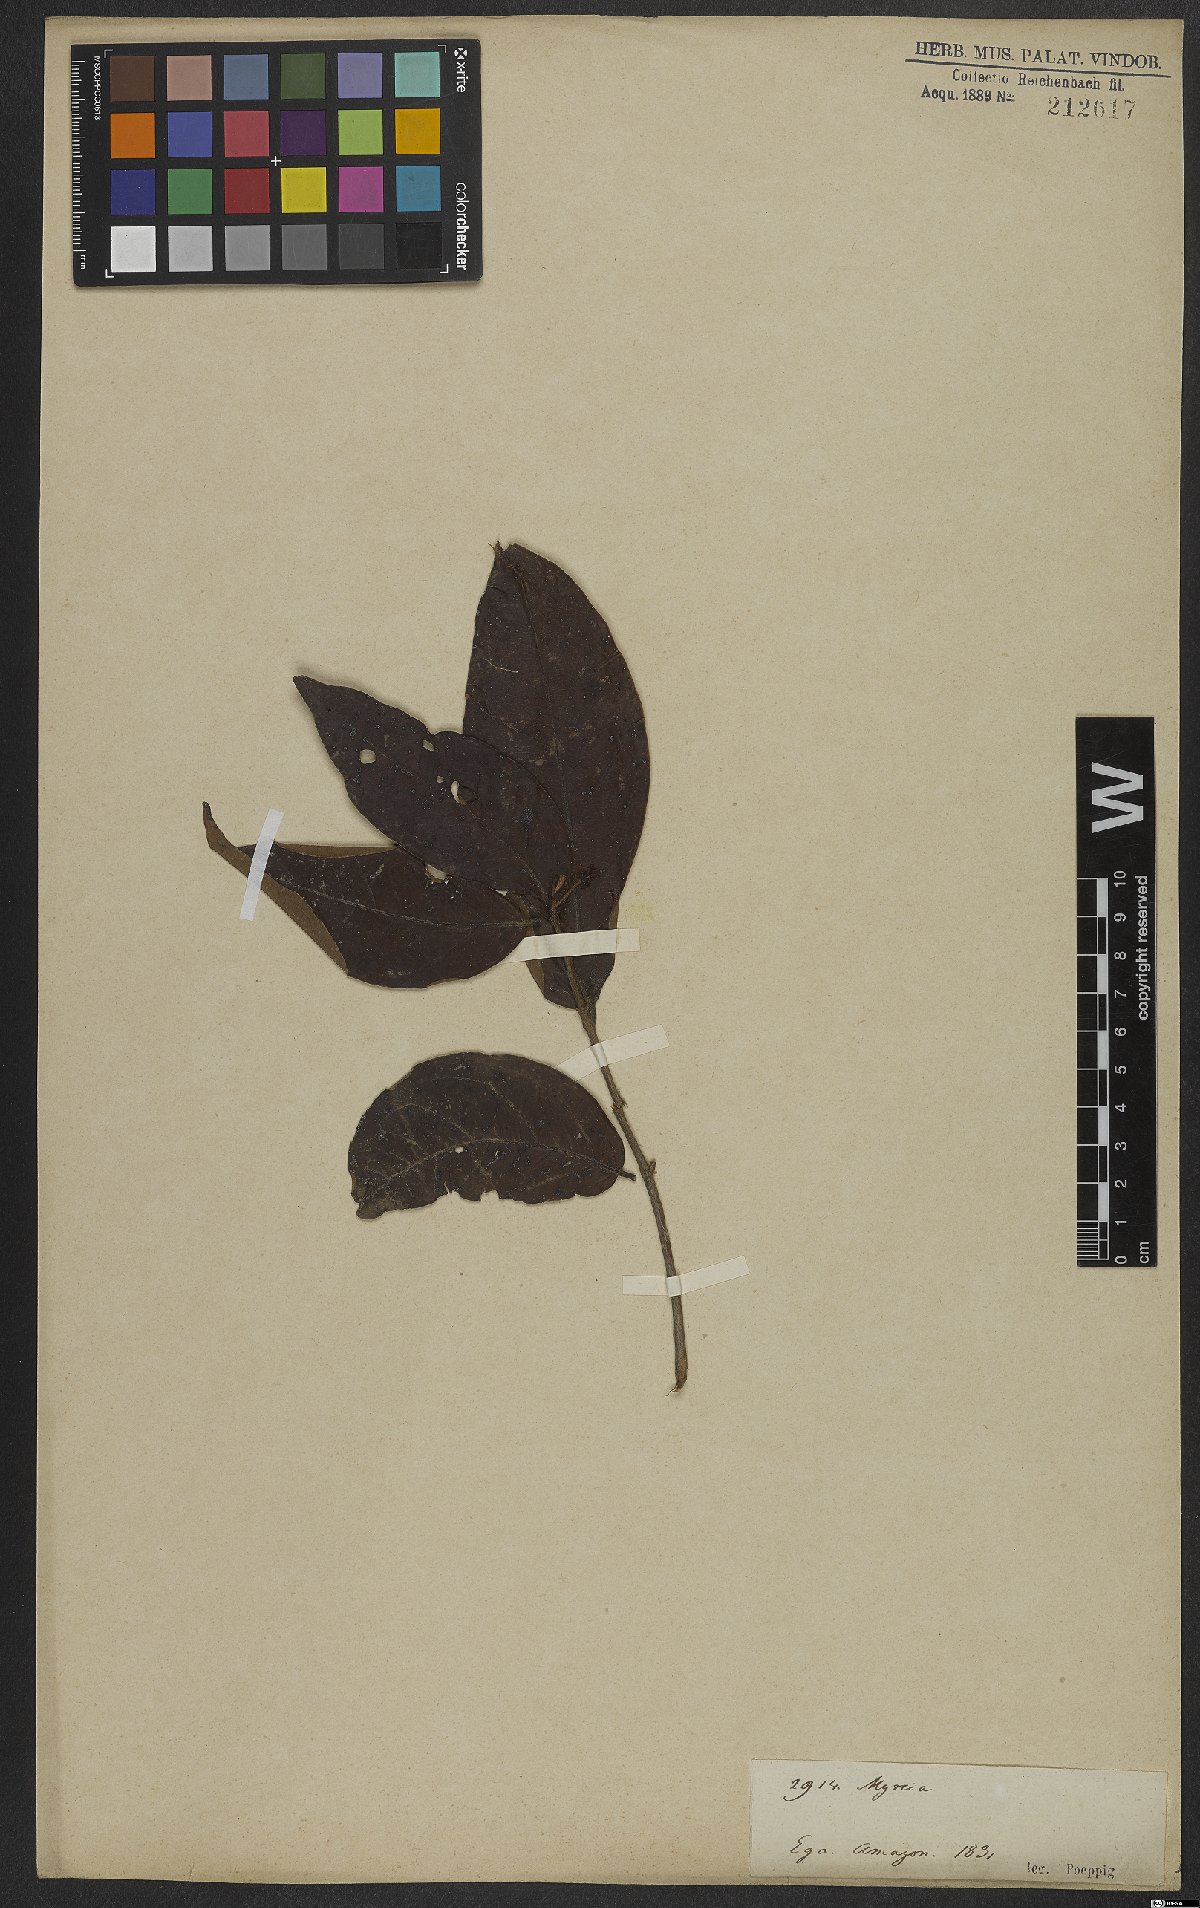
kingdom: Plantae
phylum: Tracheophyta
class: Magnoliopsida
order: Myrtales
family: Myrtaceae
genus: Eugenia
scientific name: Eugenia patrisii
